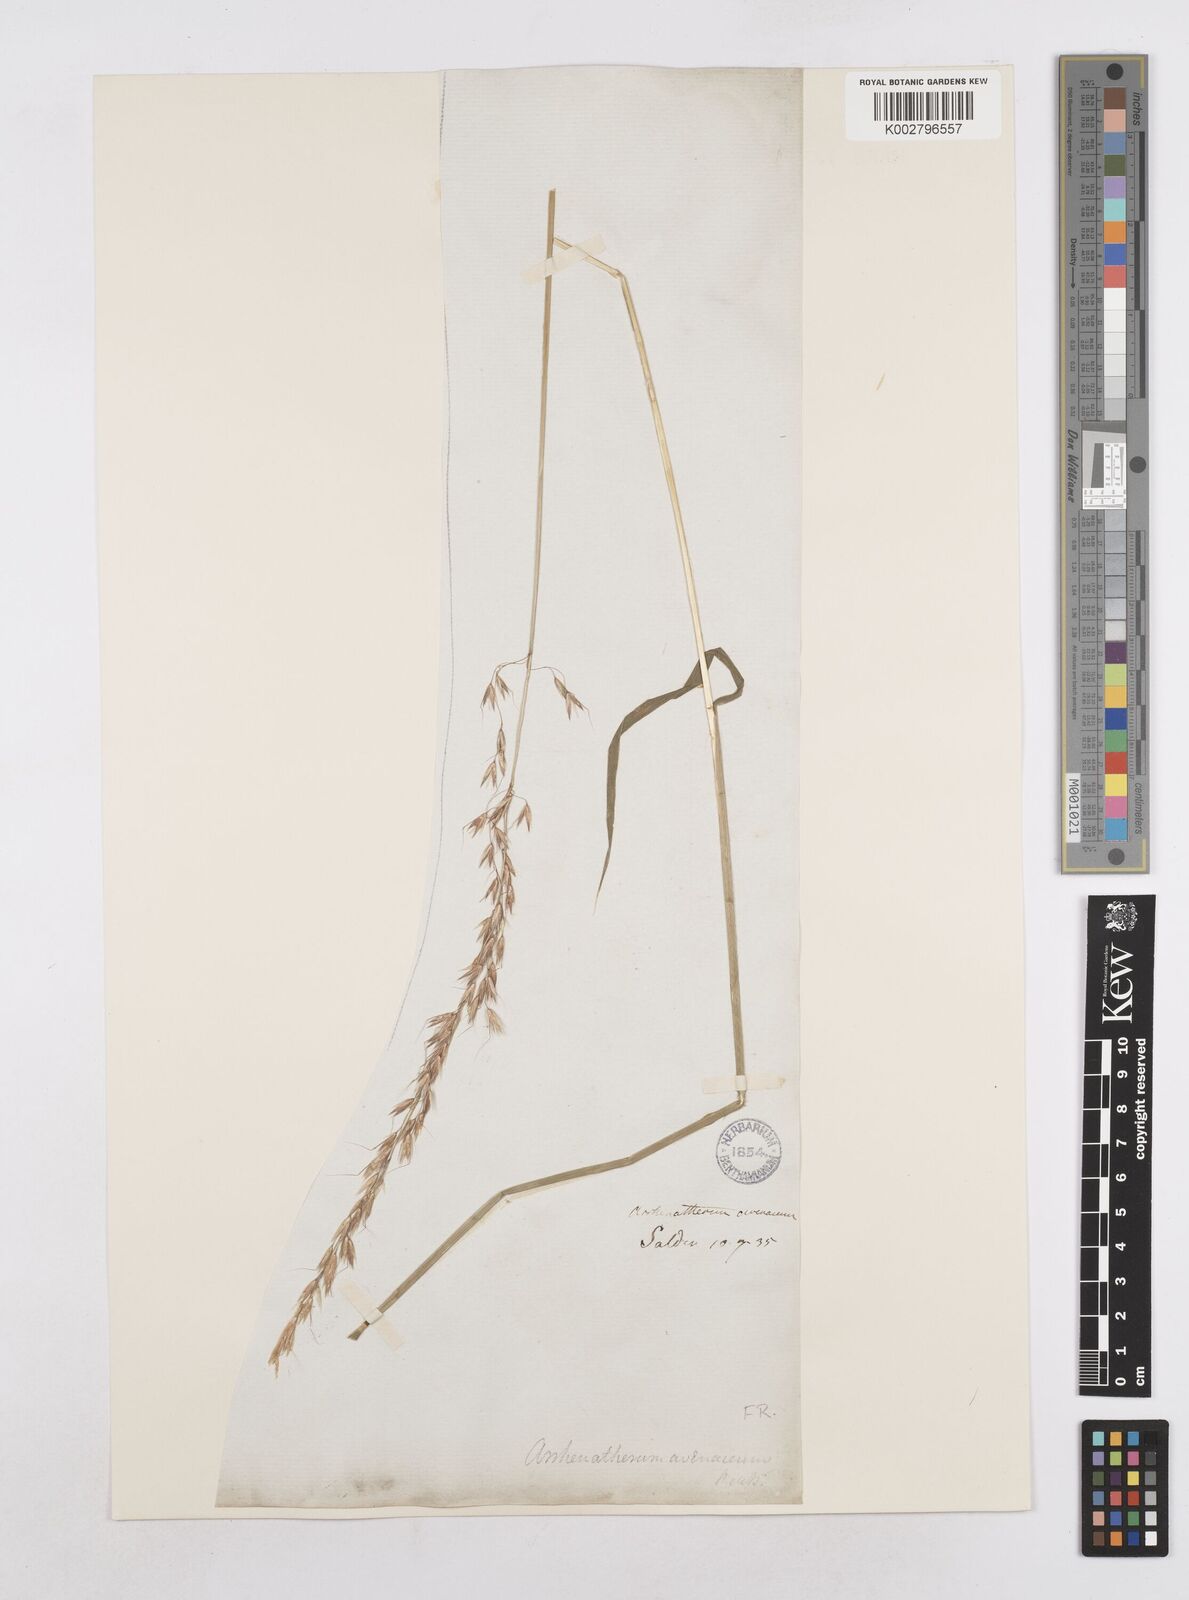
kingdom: Plantae
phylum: Tracheophyta
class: Liliopsida
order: Poales
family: Poaceae
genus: Arrhenatherum
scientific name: Arrhenatherum elatius
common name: Tall oatgrass
